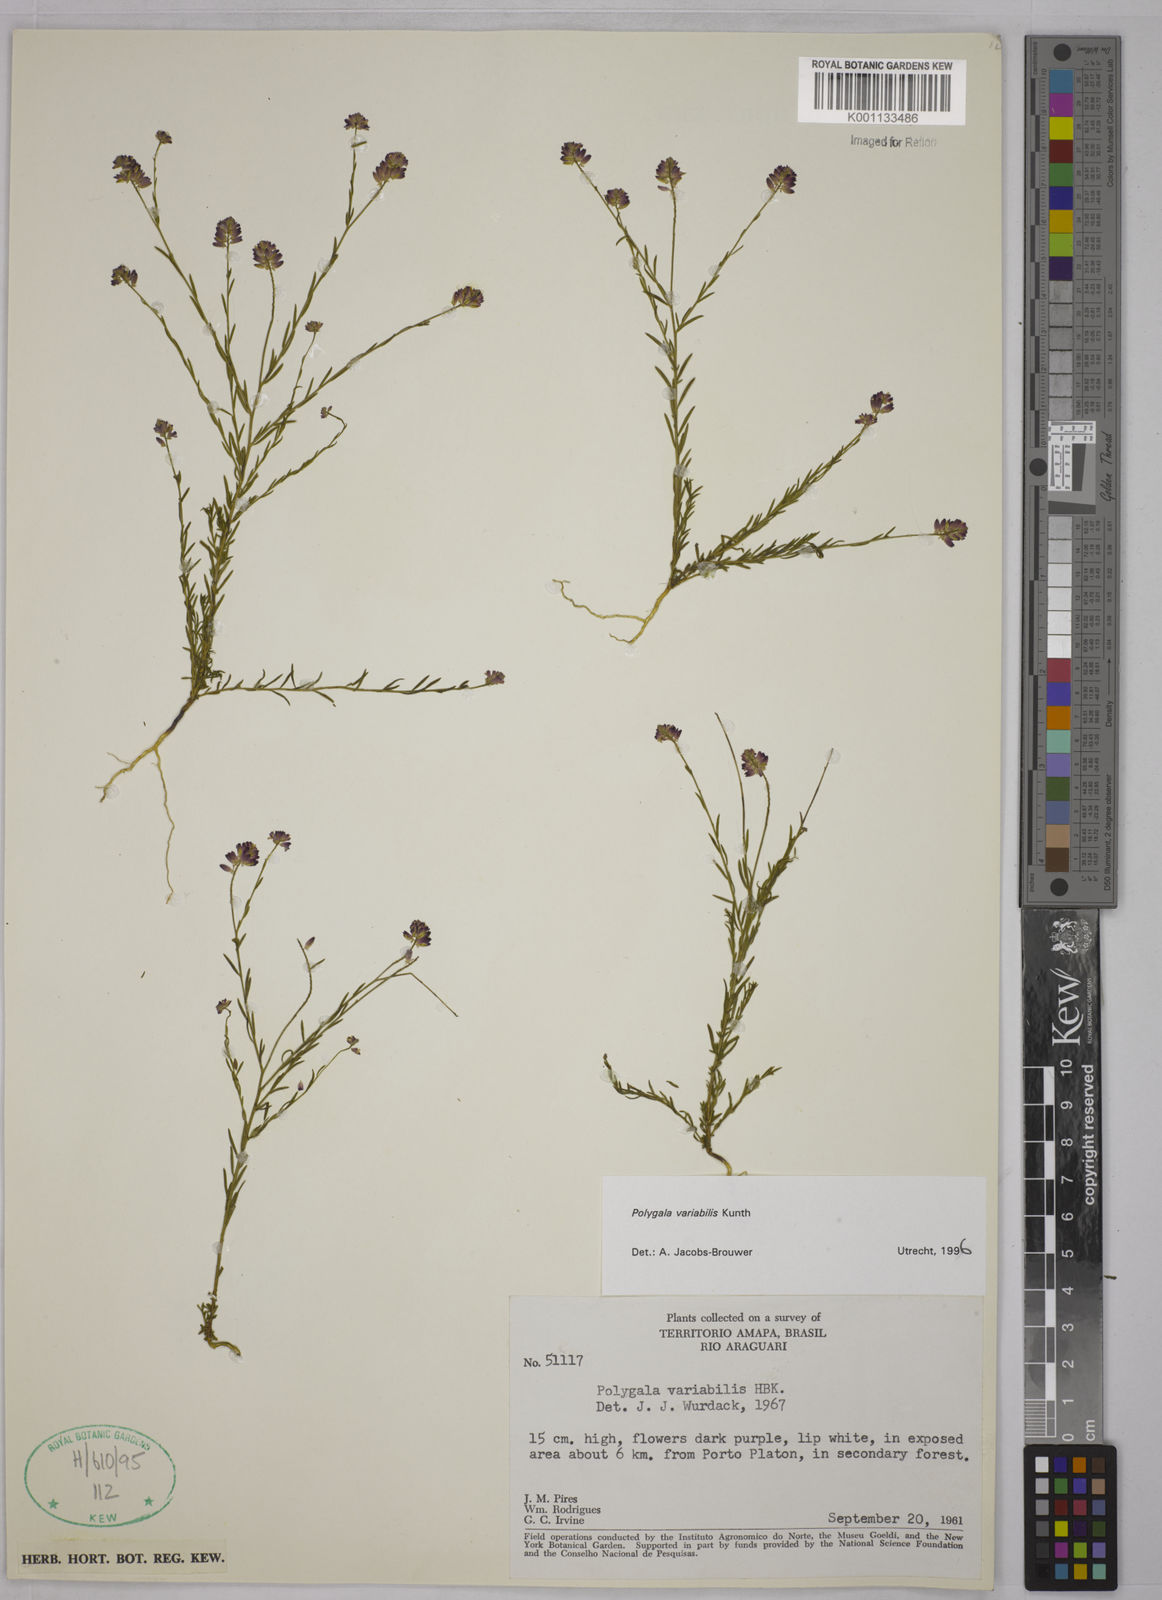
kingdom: Plantae
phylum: Tracheophyta
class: Magnoliopsida
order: Fabales
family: Polygalaceae
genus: Polygala
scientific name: Polygala trichosperma
